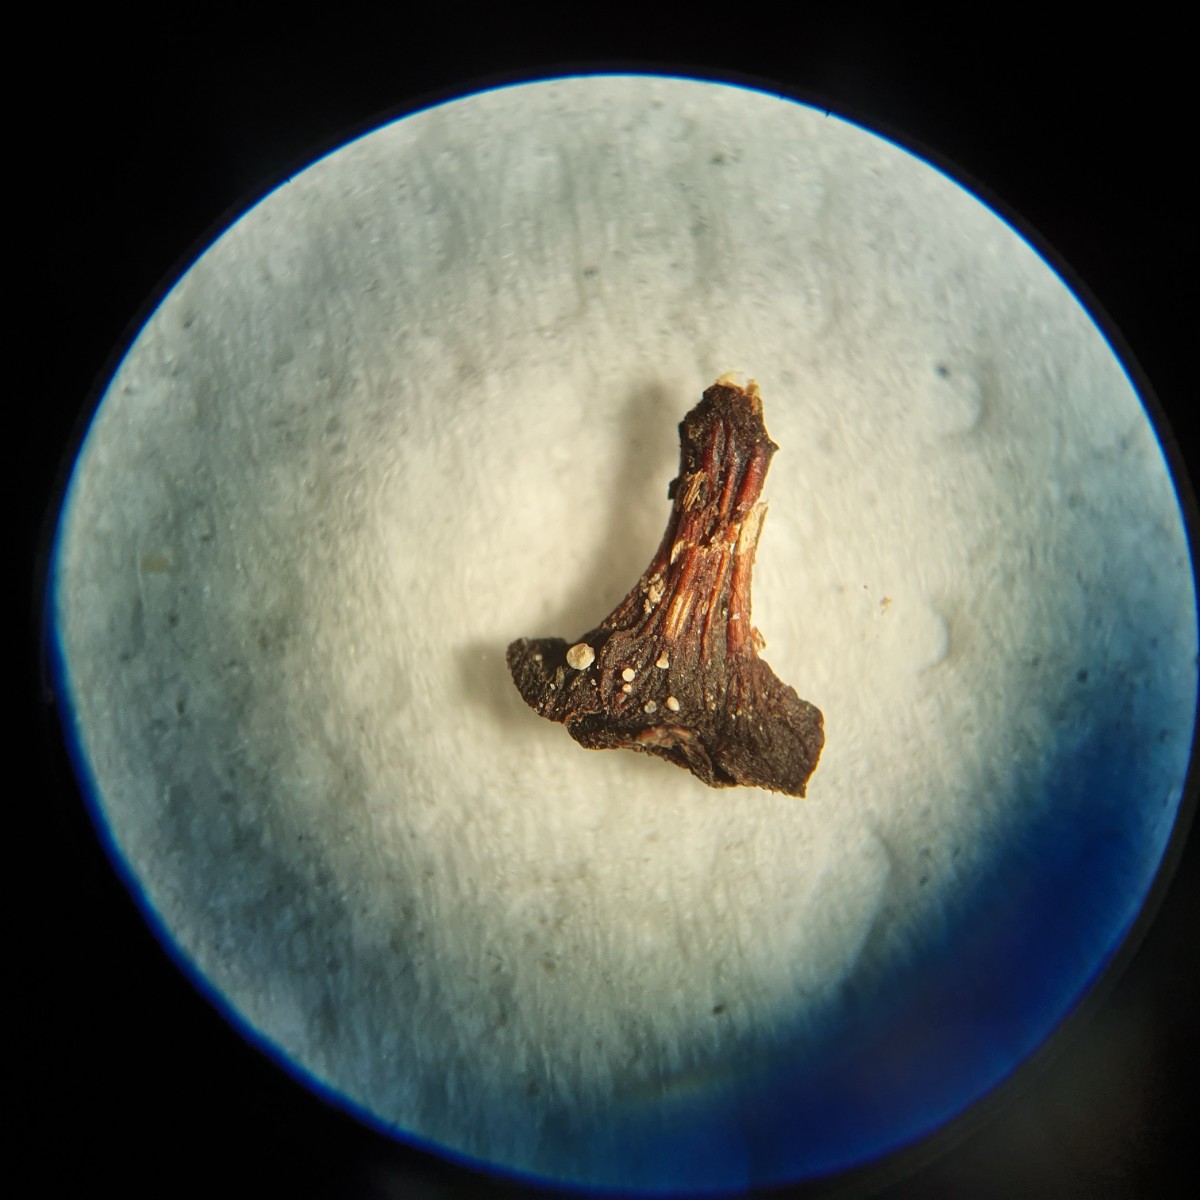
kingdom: Fungi
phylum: Ascomycota
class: Leotiomycetes
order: Helotiales
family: Pezizellaceae
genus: Calycina
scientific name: Calycina alniella
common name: ellekogle-stilkskive
